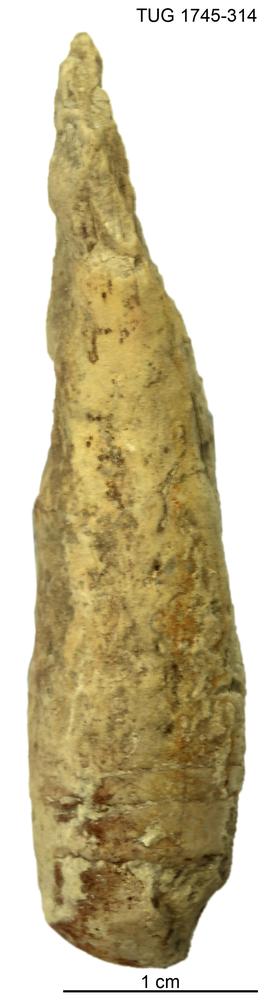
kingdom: Animalia
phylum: Mollusca
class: Cephalopoda
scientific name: Cephalopoda
